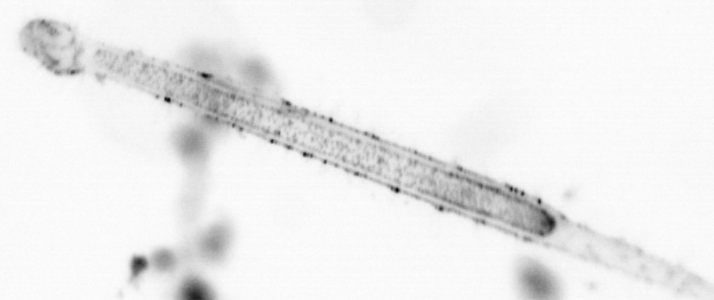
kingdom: Animalia
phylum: Chordata
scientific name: Chordata
